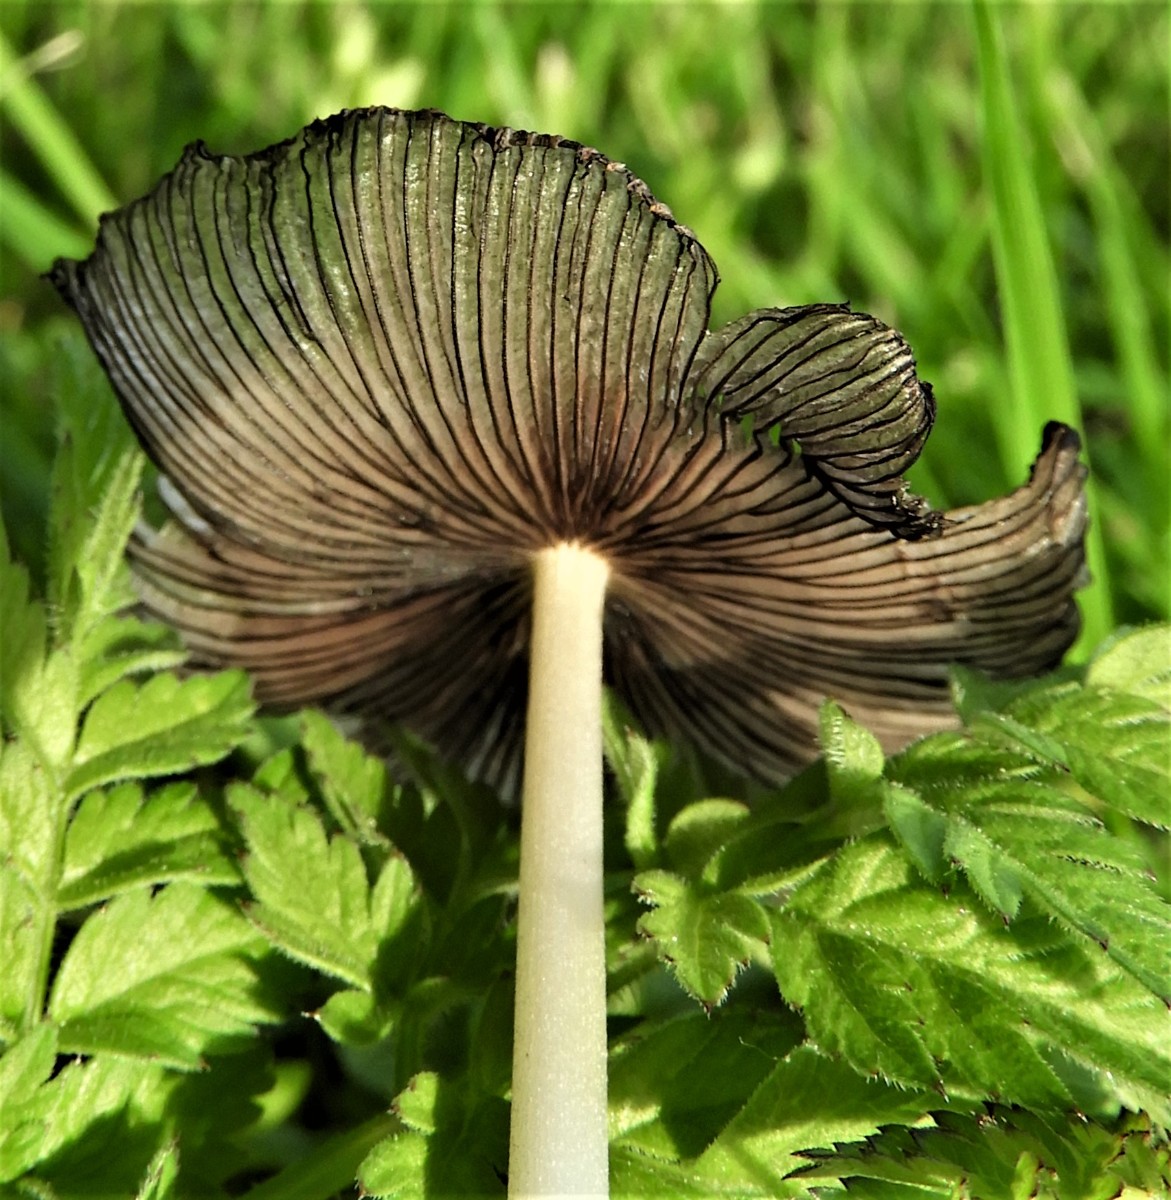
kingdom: Fungi
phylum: Basidiomycota
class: Agaricomycetes
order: Agaricales
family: Psathyrellaceae
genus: Coprinopsis
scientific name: Coprinopsis lagopus
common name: dunstokket blækhat
